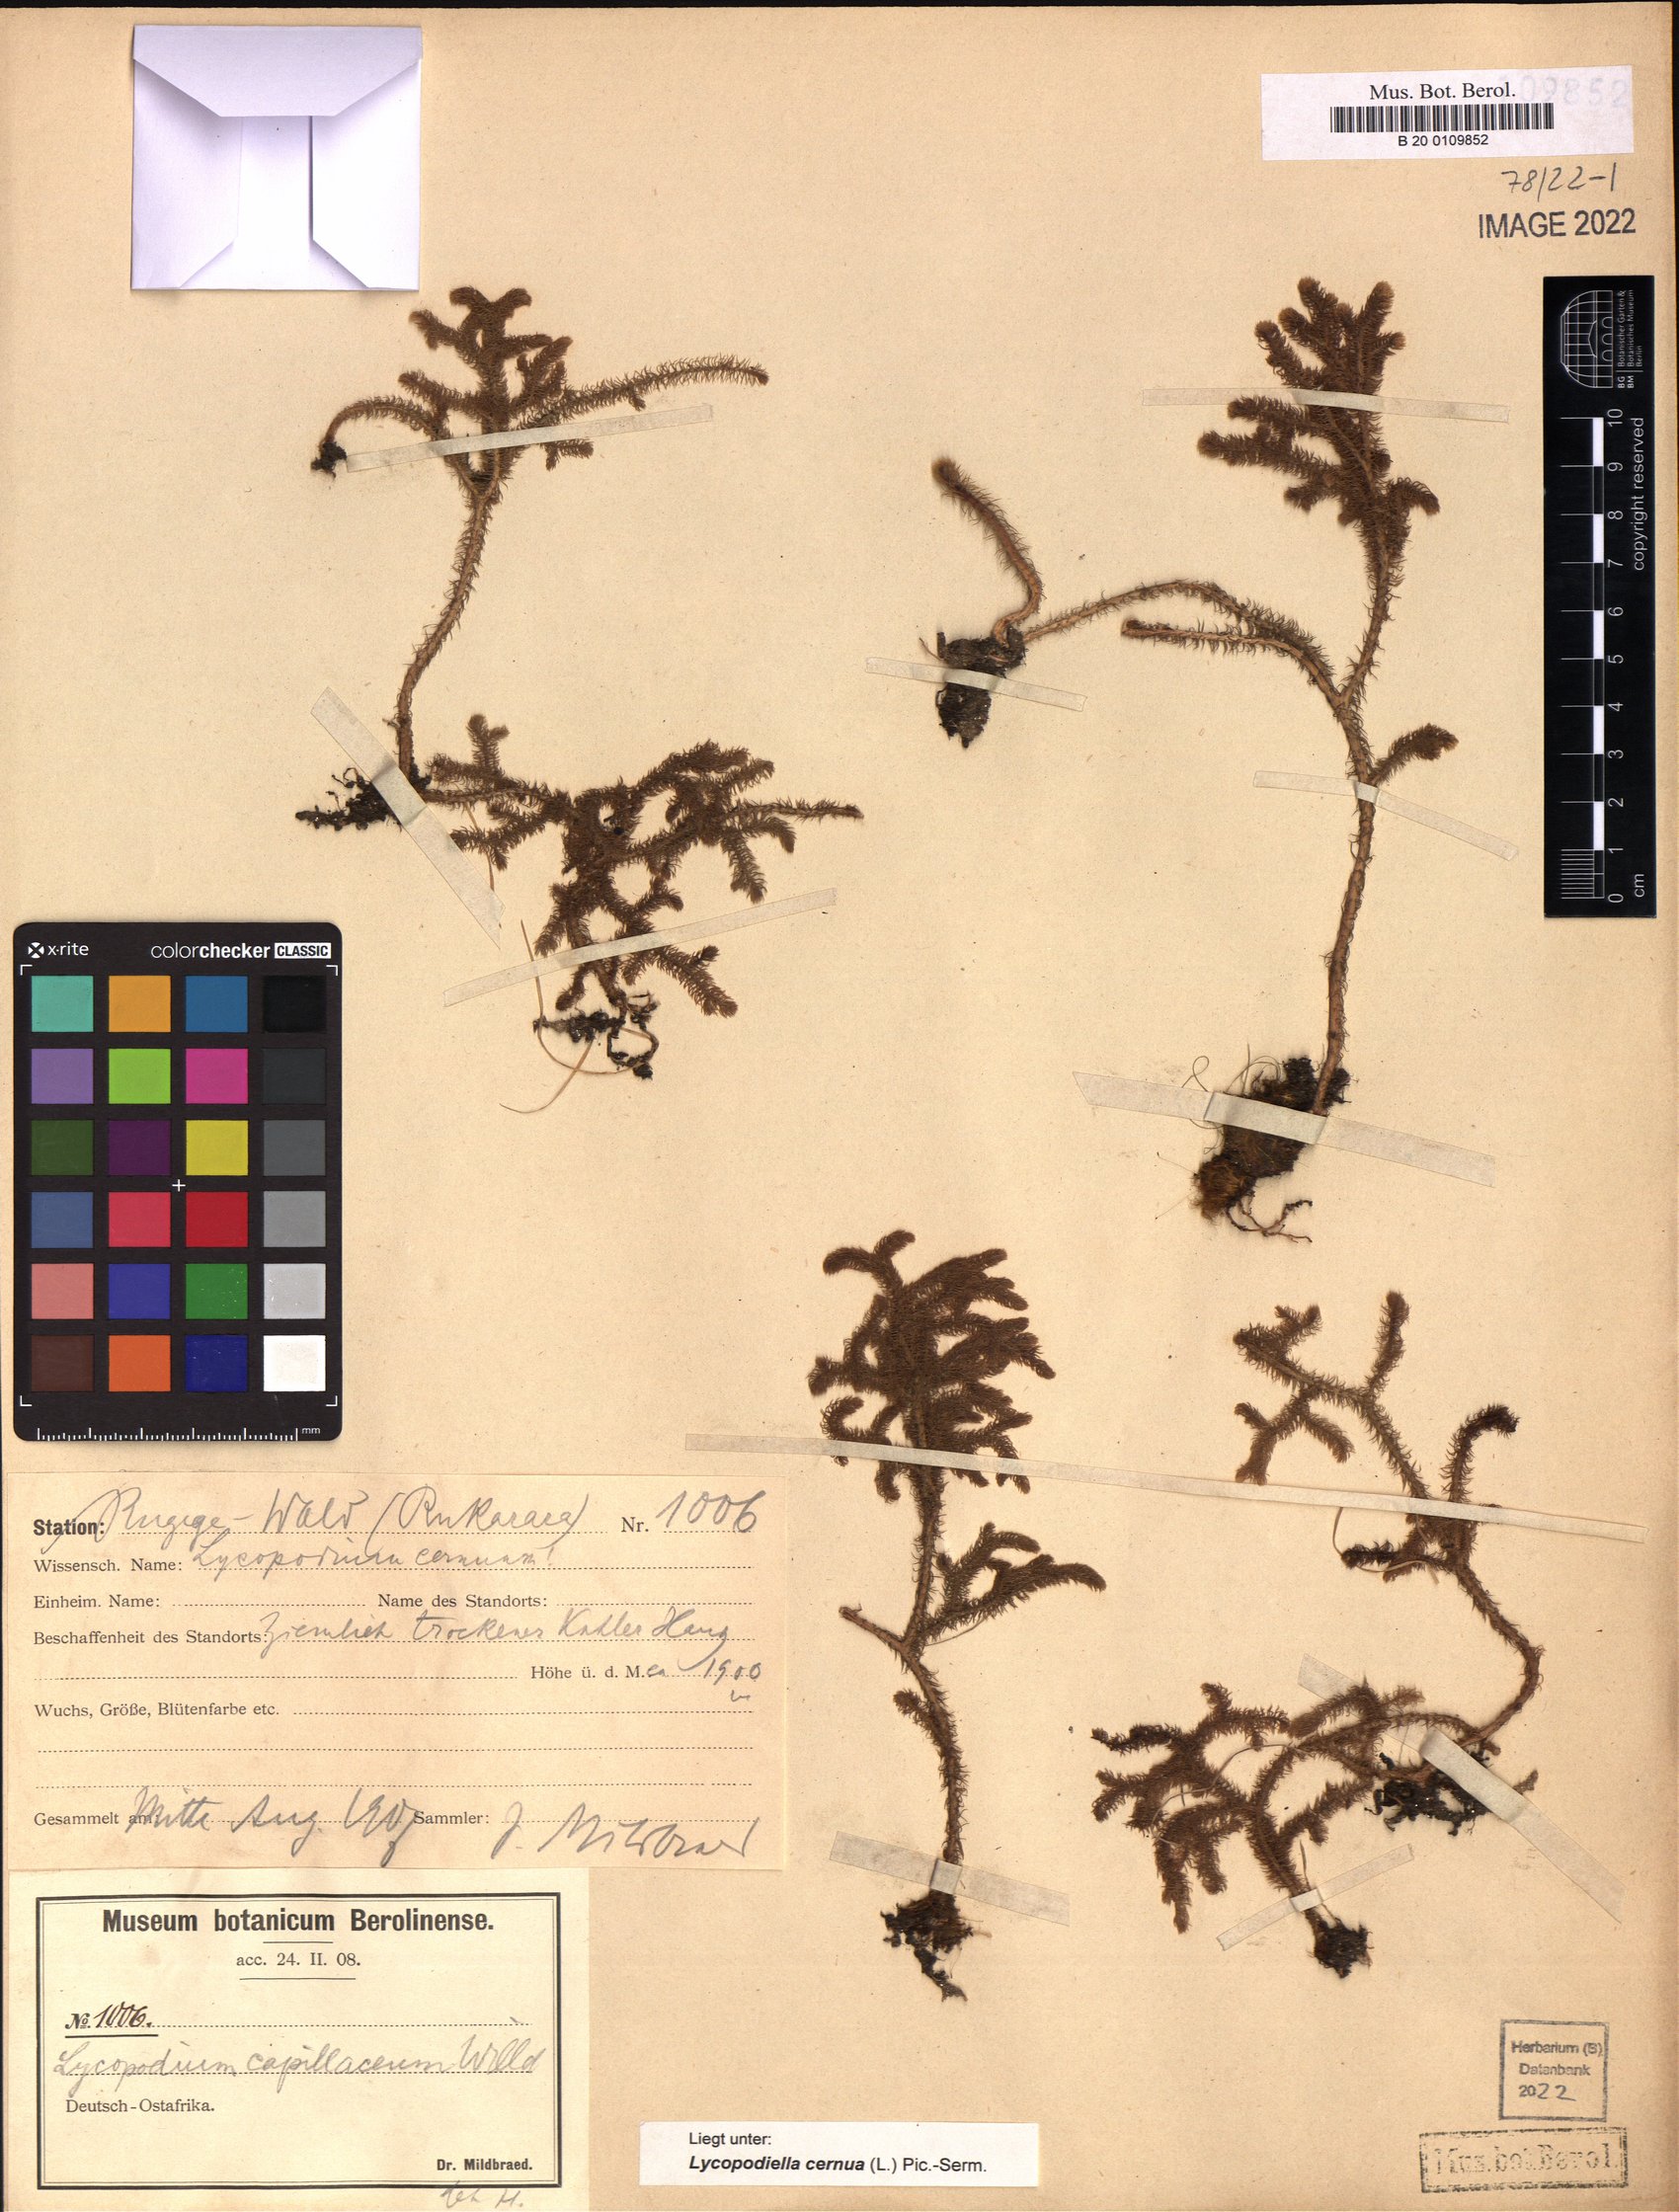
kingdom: Plantae
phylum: Tracheophyta
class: Lycopodiopsida
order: Lycopodiales
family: Lycopodiaceae
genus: Palhinhaea
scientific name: Palhinhaea cernua
